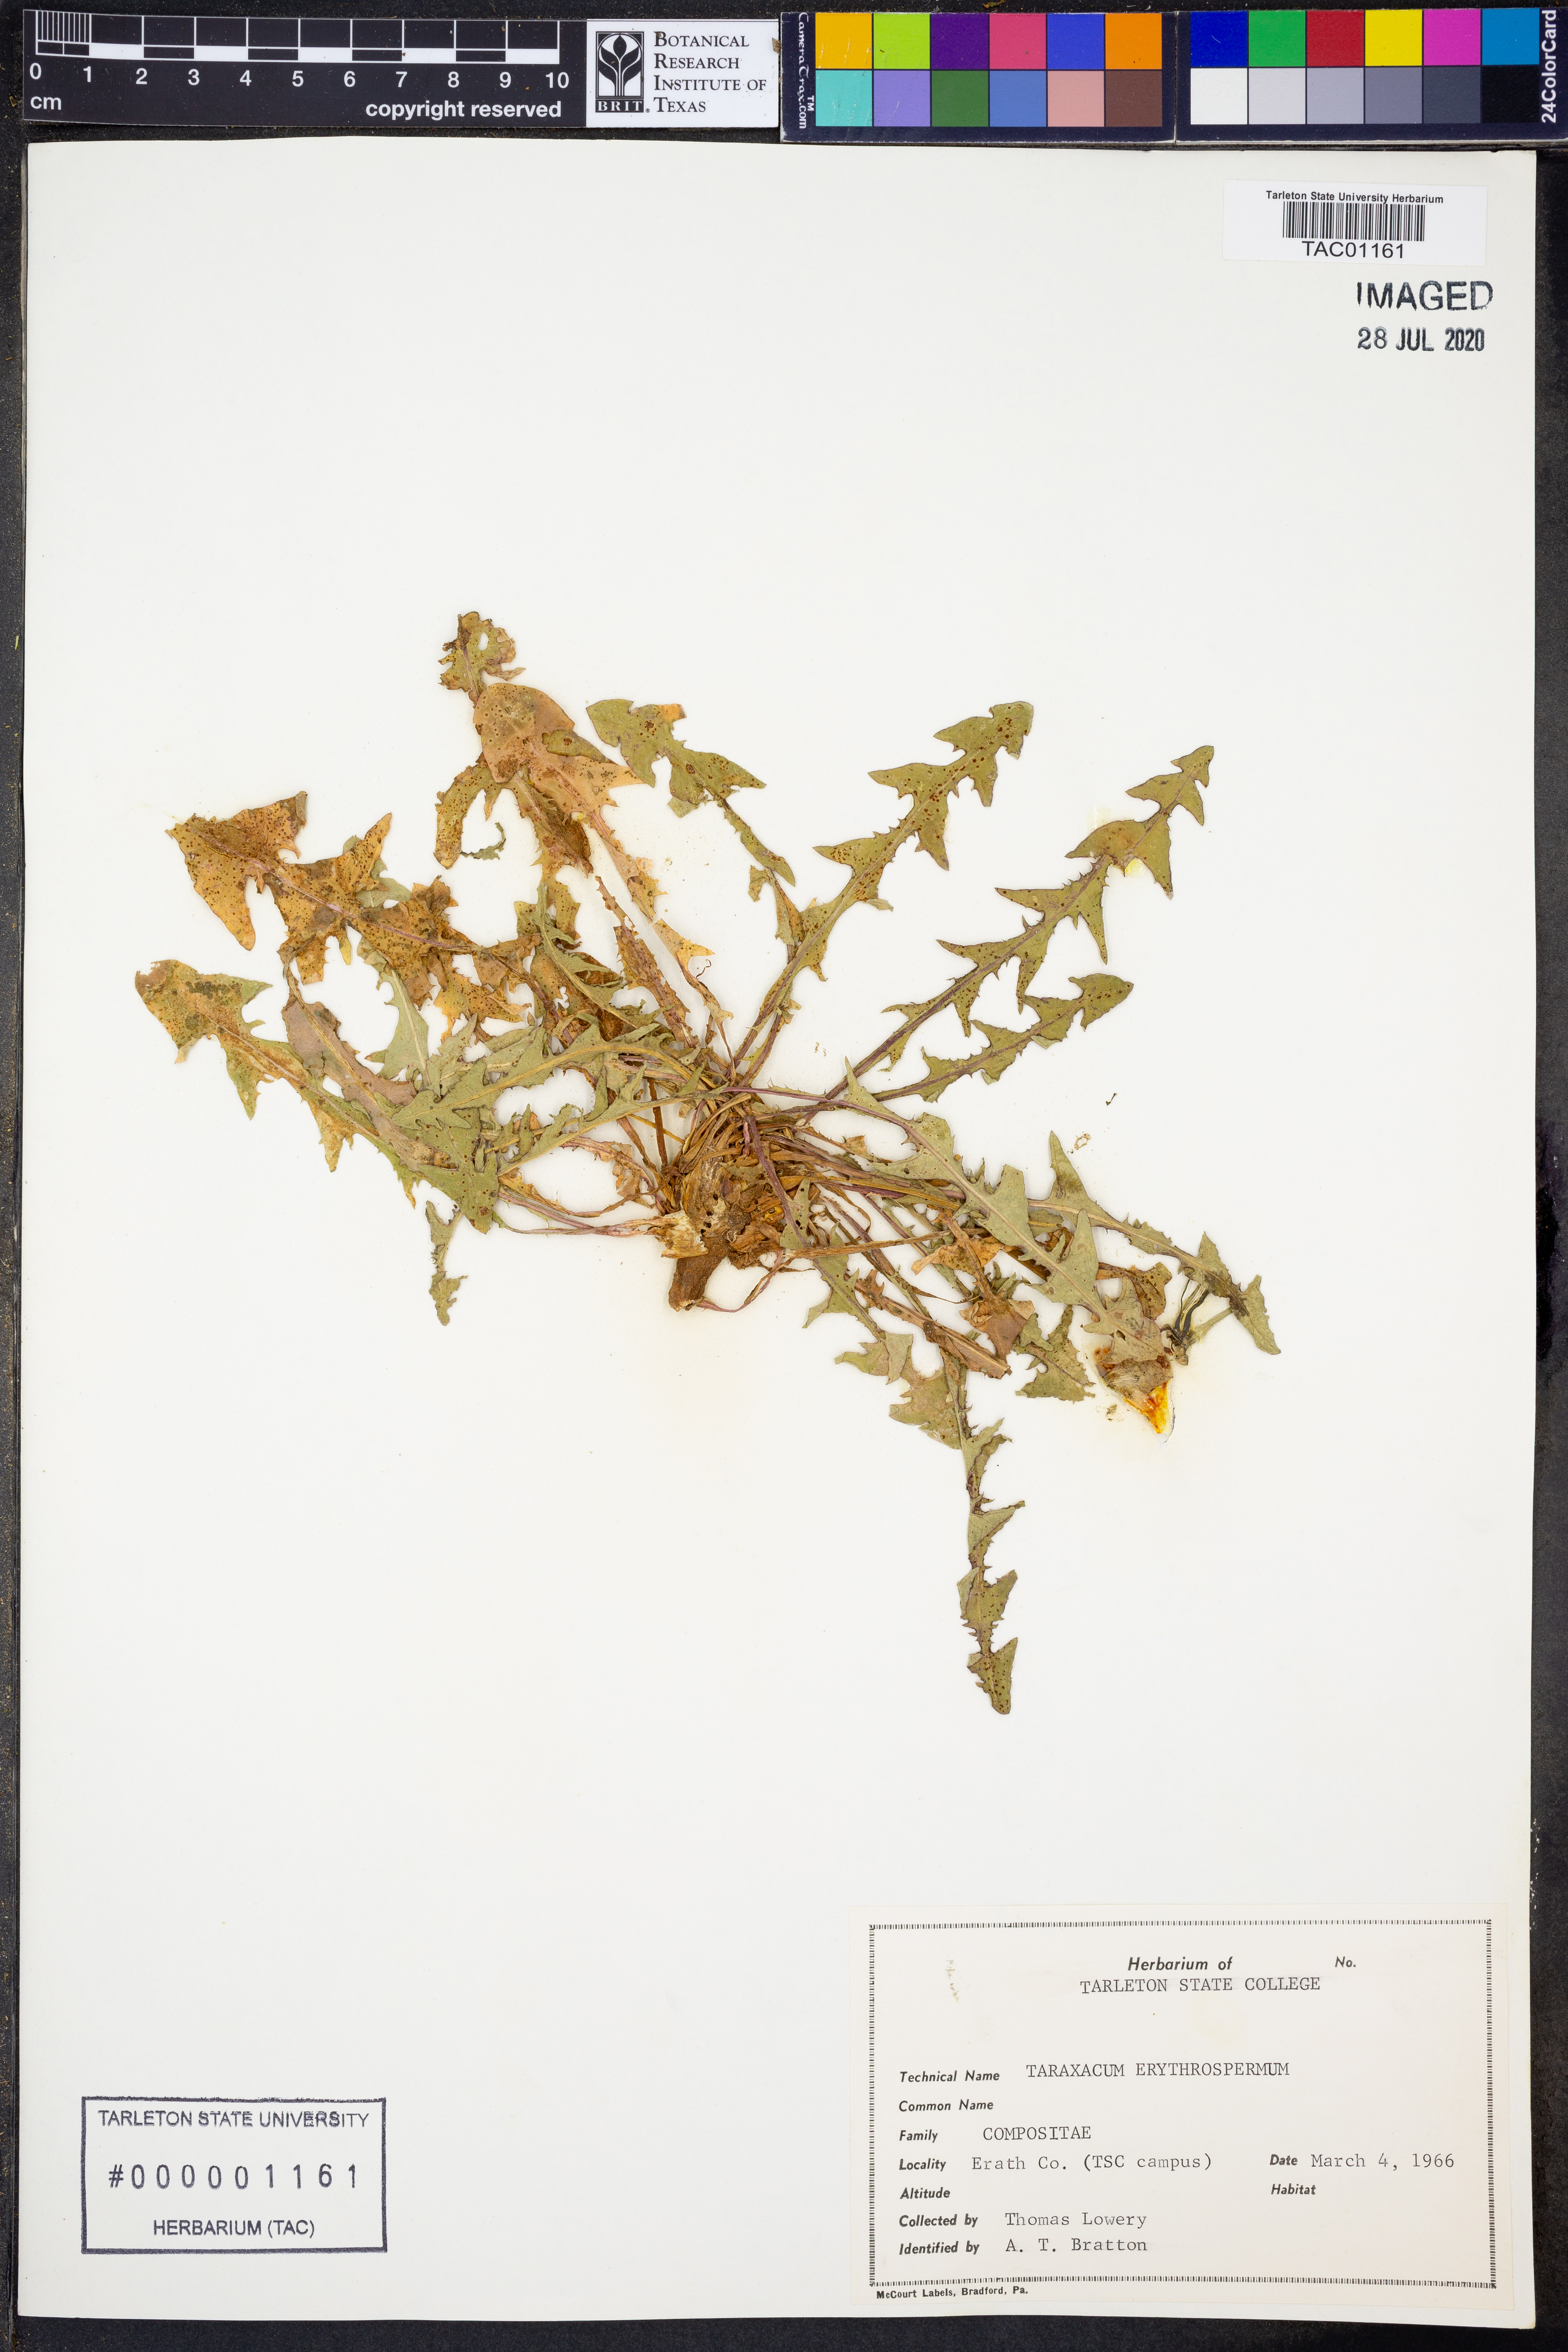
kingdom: Plantae
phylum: Tracheophyta
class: Magnoliopsida
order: Asterales
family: Asteraceae
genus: Taraxacum
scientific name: Taraxacum erythrospermum
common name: Rock dandelion
